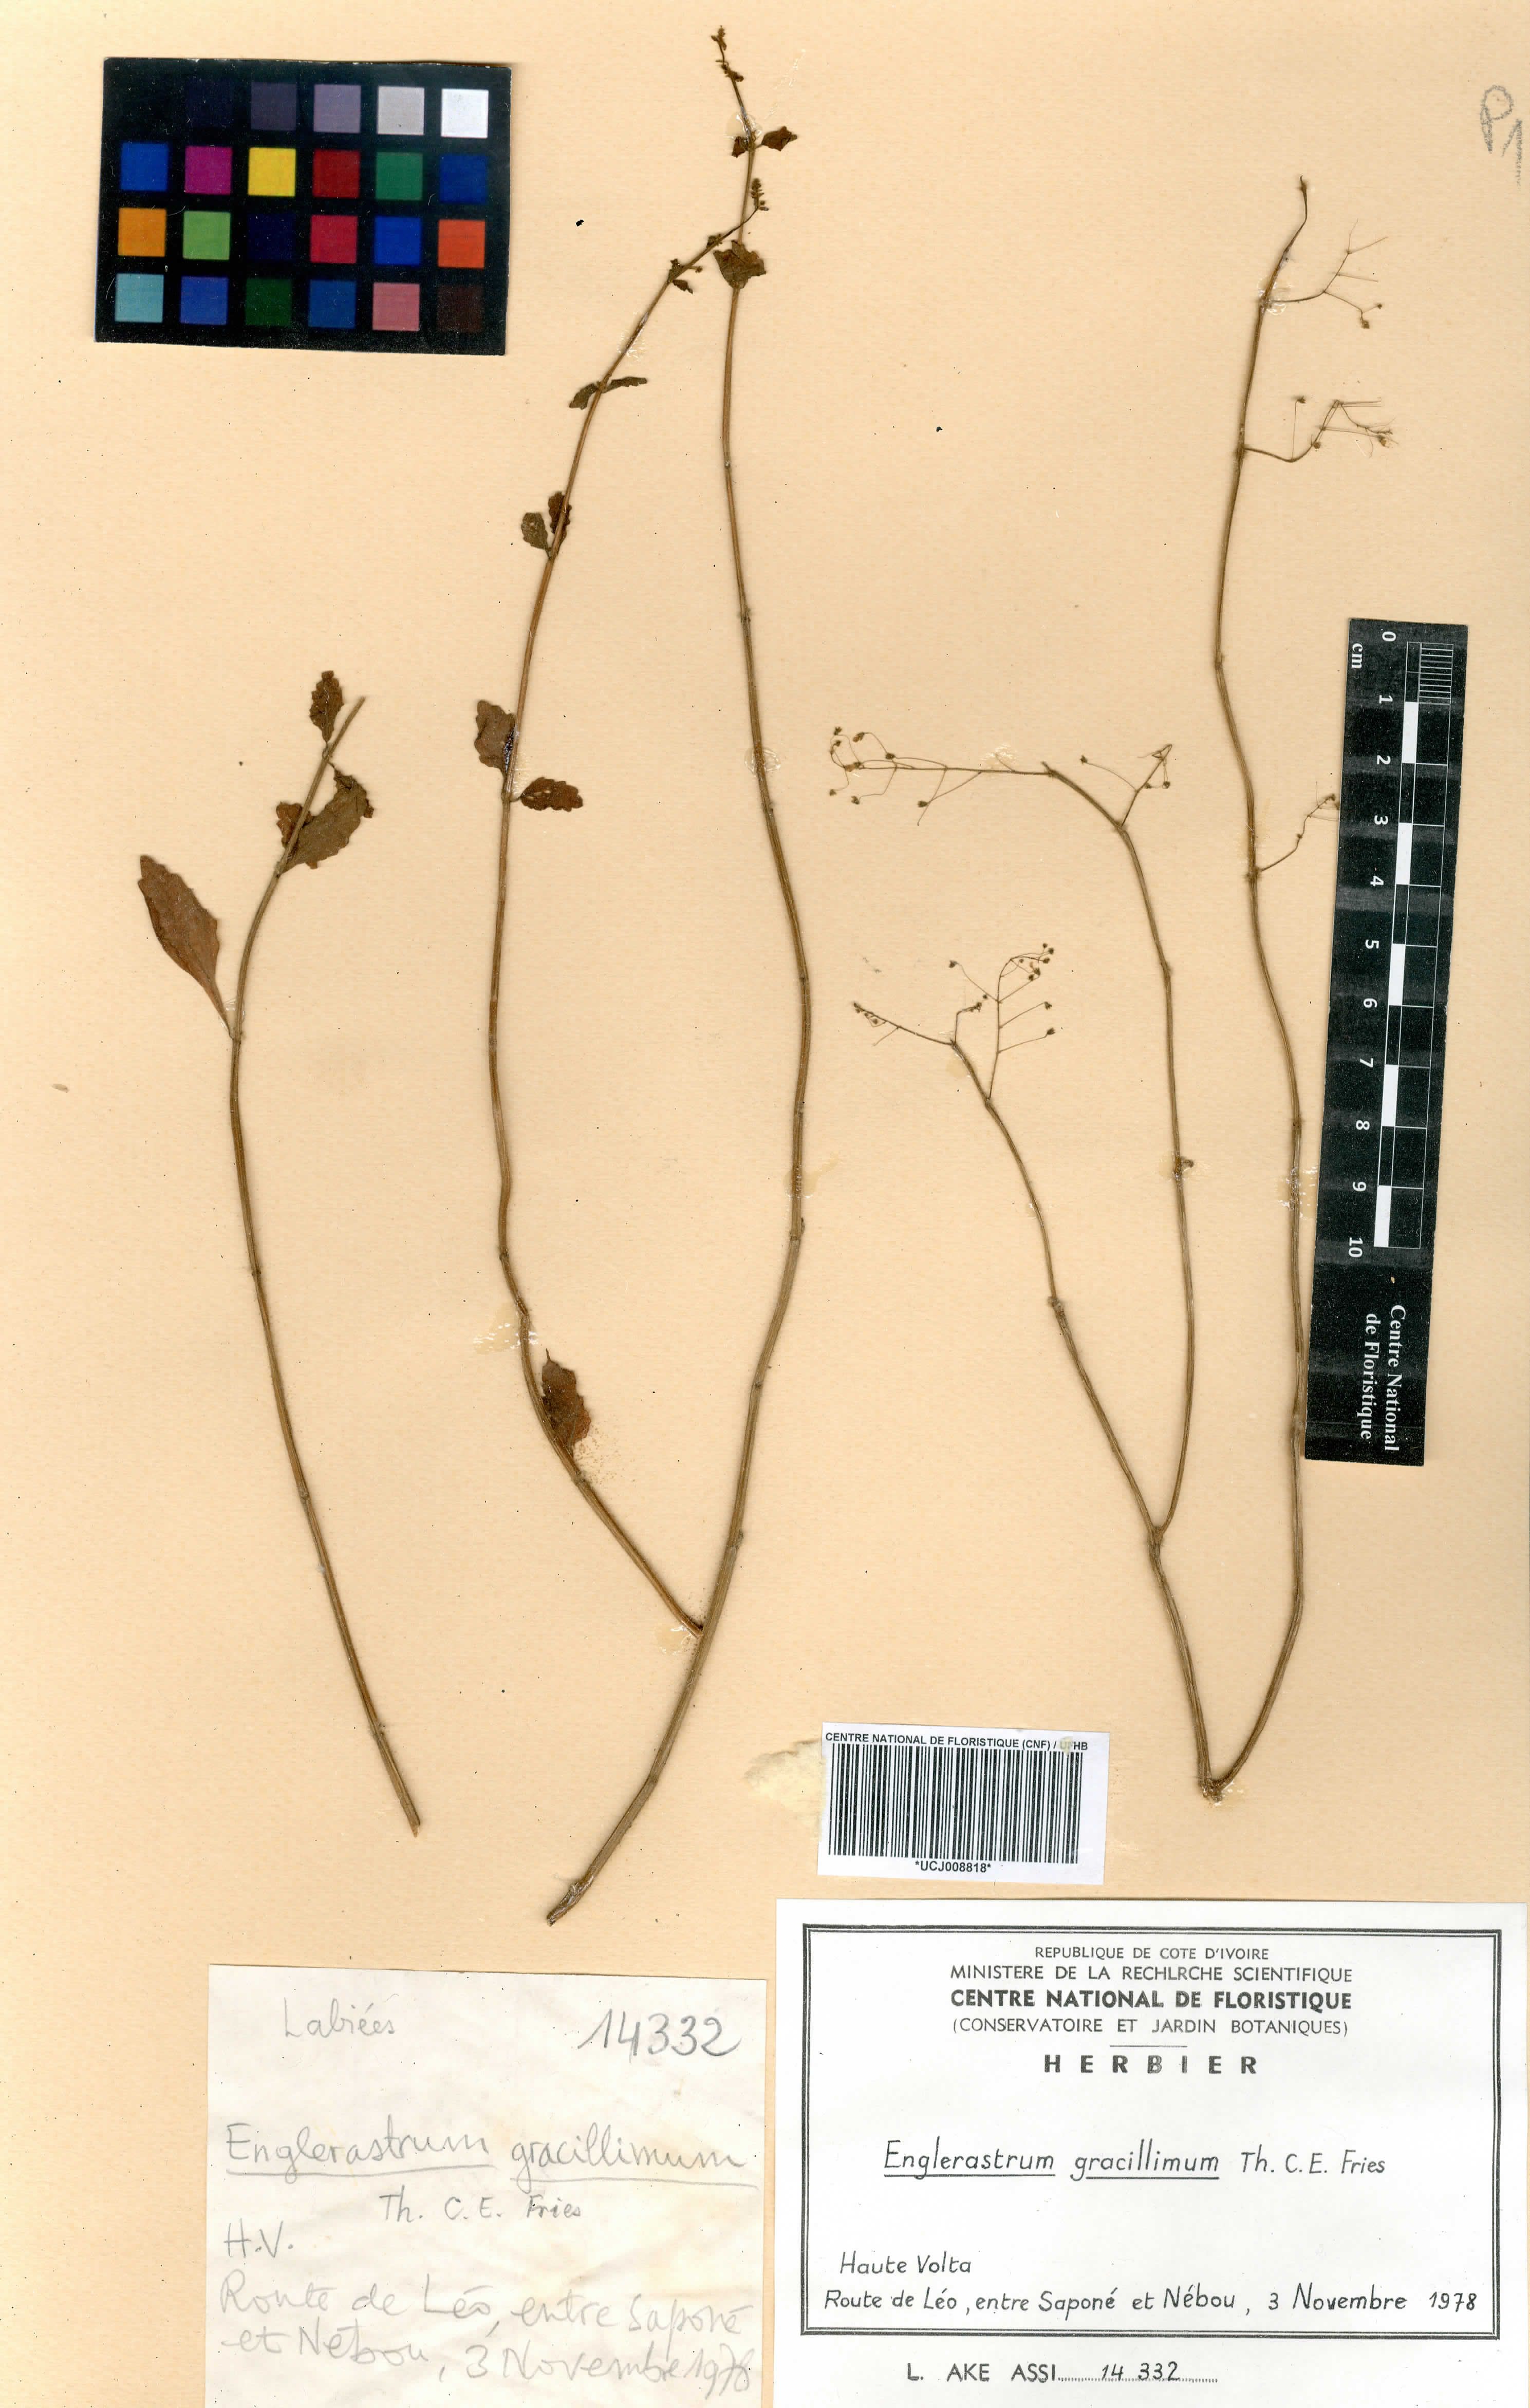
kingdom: Plantae
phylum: Tracheophyta
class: Magnoliopsida
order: Lamiales
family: Lamiaceae
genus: Coleus
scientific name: Coleus gracillimus
